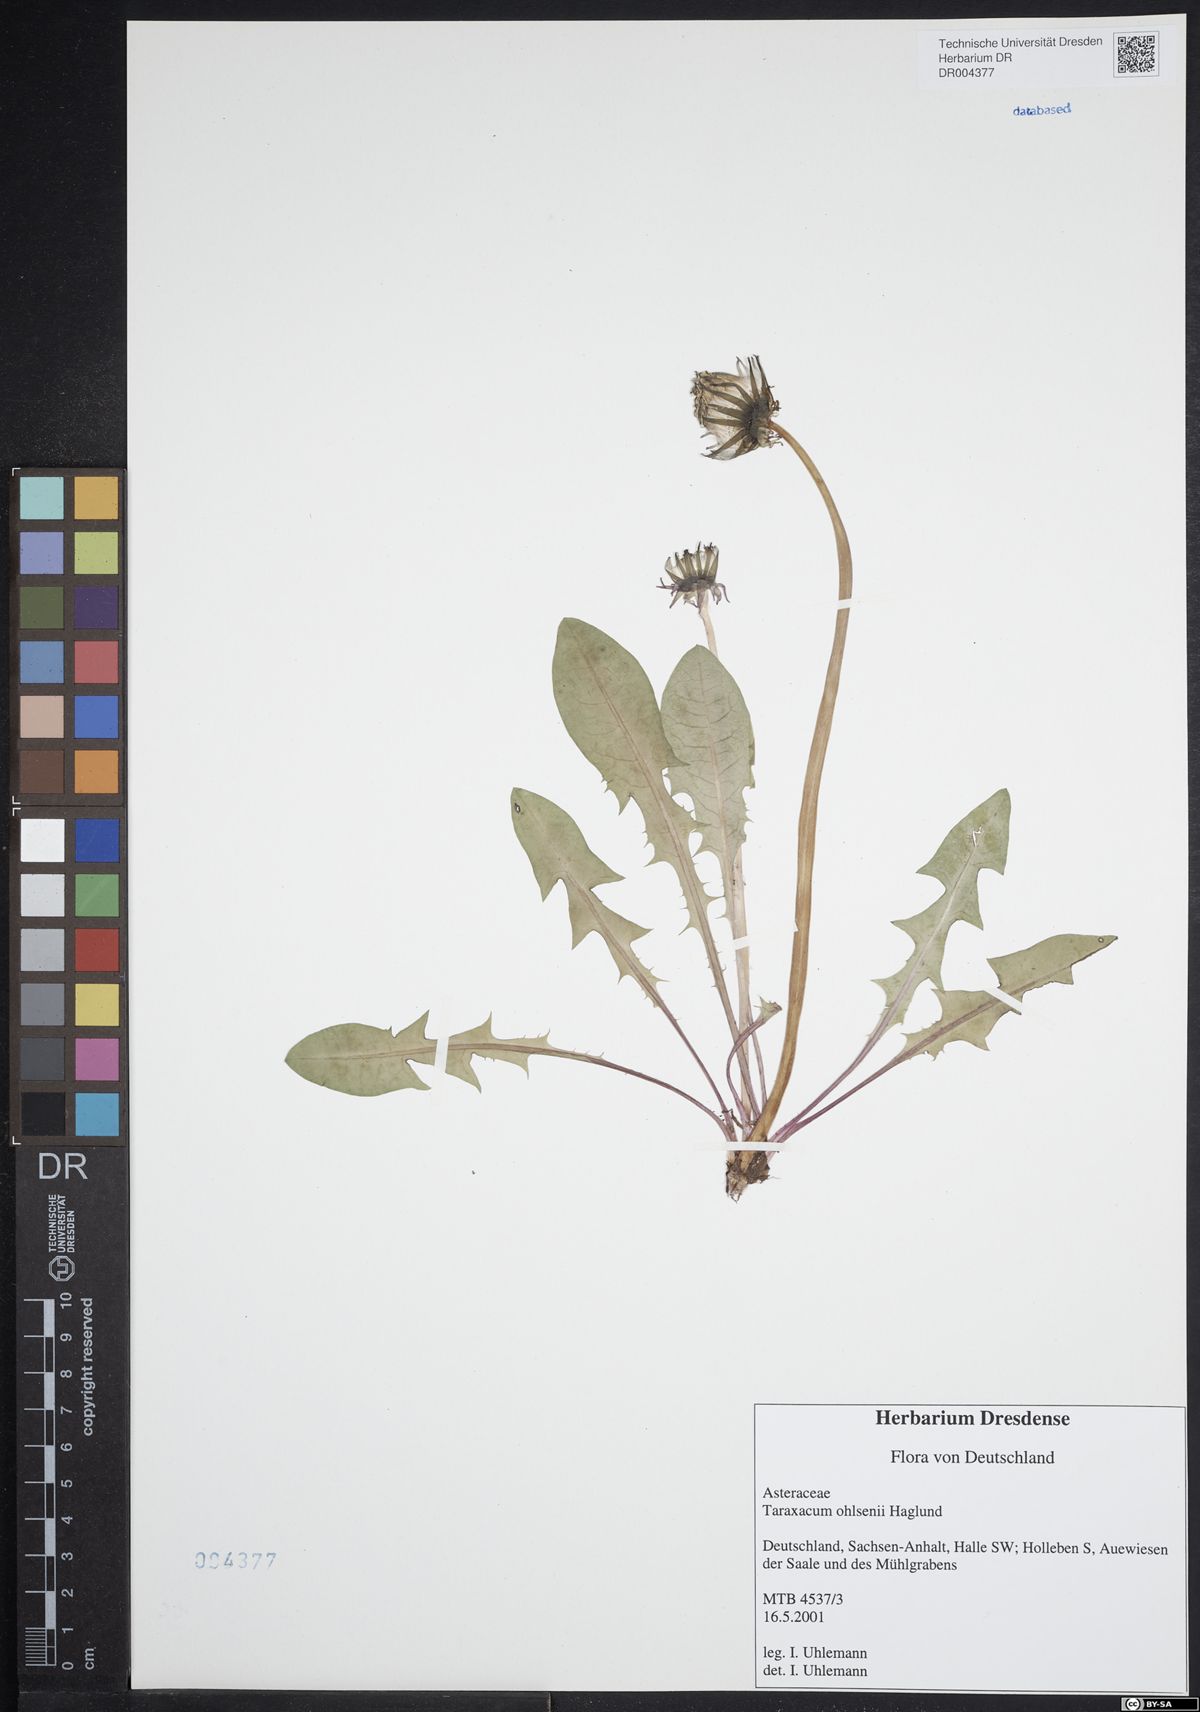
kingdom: Plantae
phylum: Tracheophyta
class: Magnoliopsida
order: Asterales
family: Asteraceae
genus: Taraxacum
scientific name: Taraxacum ohlsenii
